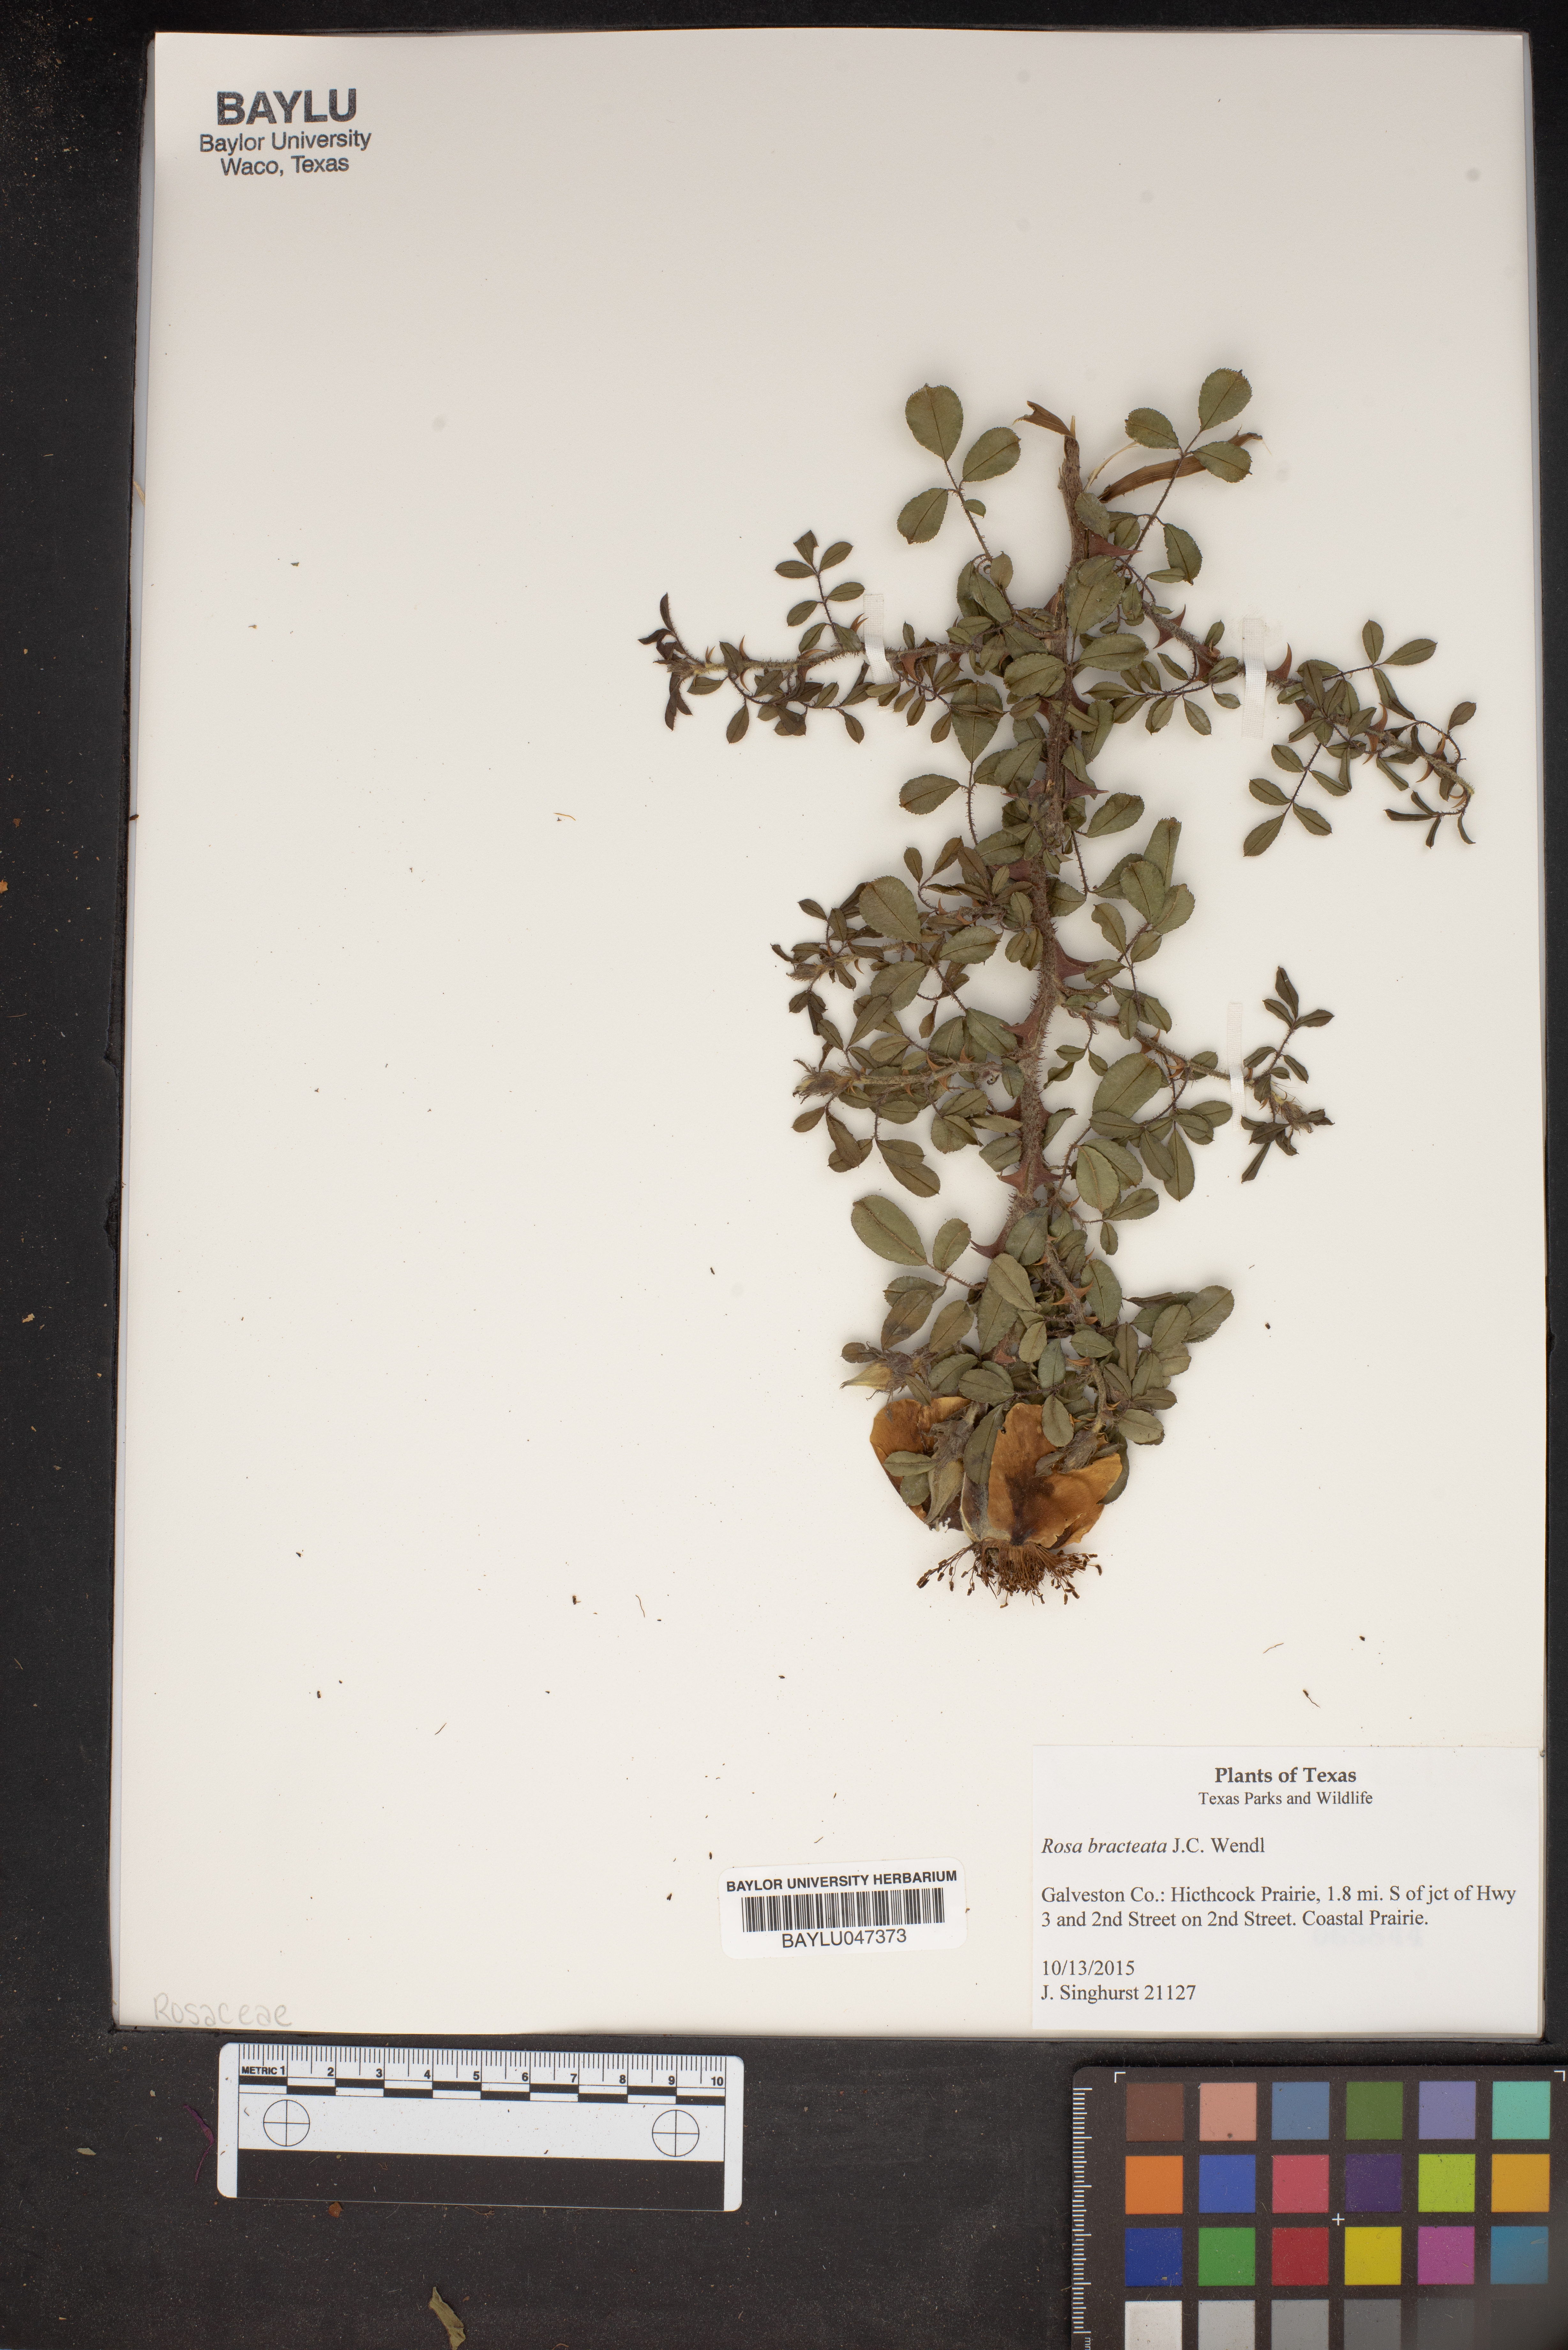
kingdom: Plantae
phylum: Tracheophyta
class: Magnoliopsida
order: Rosales
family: Rosaceae
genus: Rosa
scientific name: Rosa bracteata
